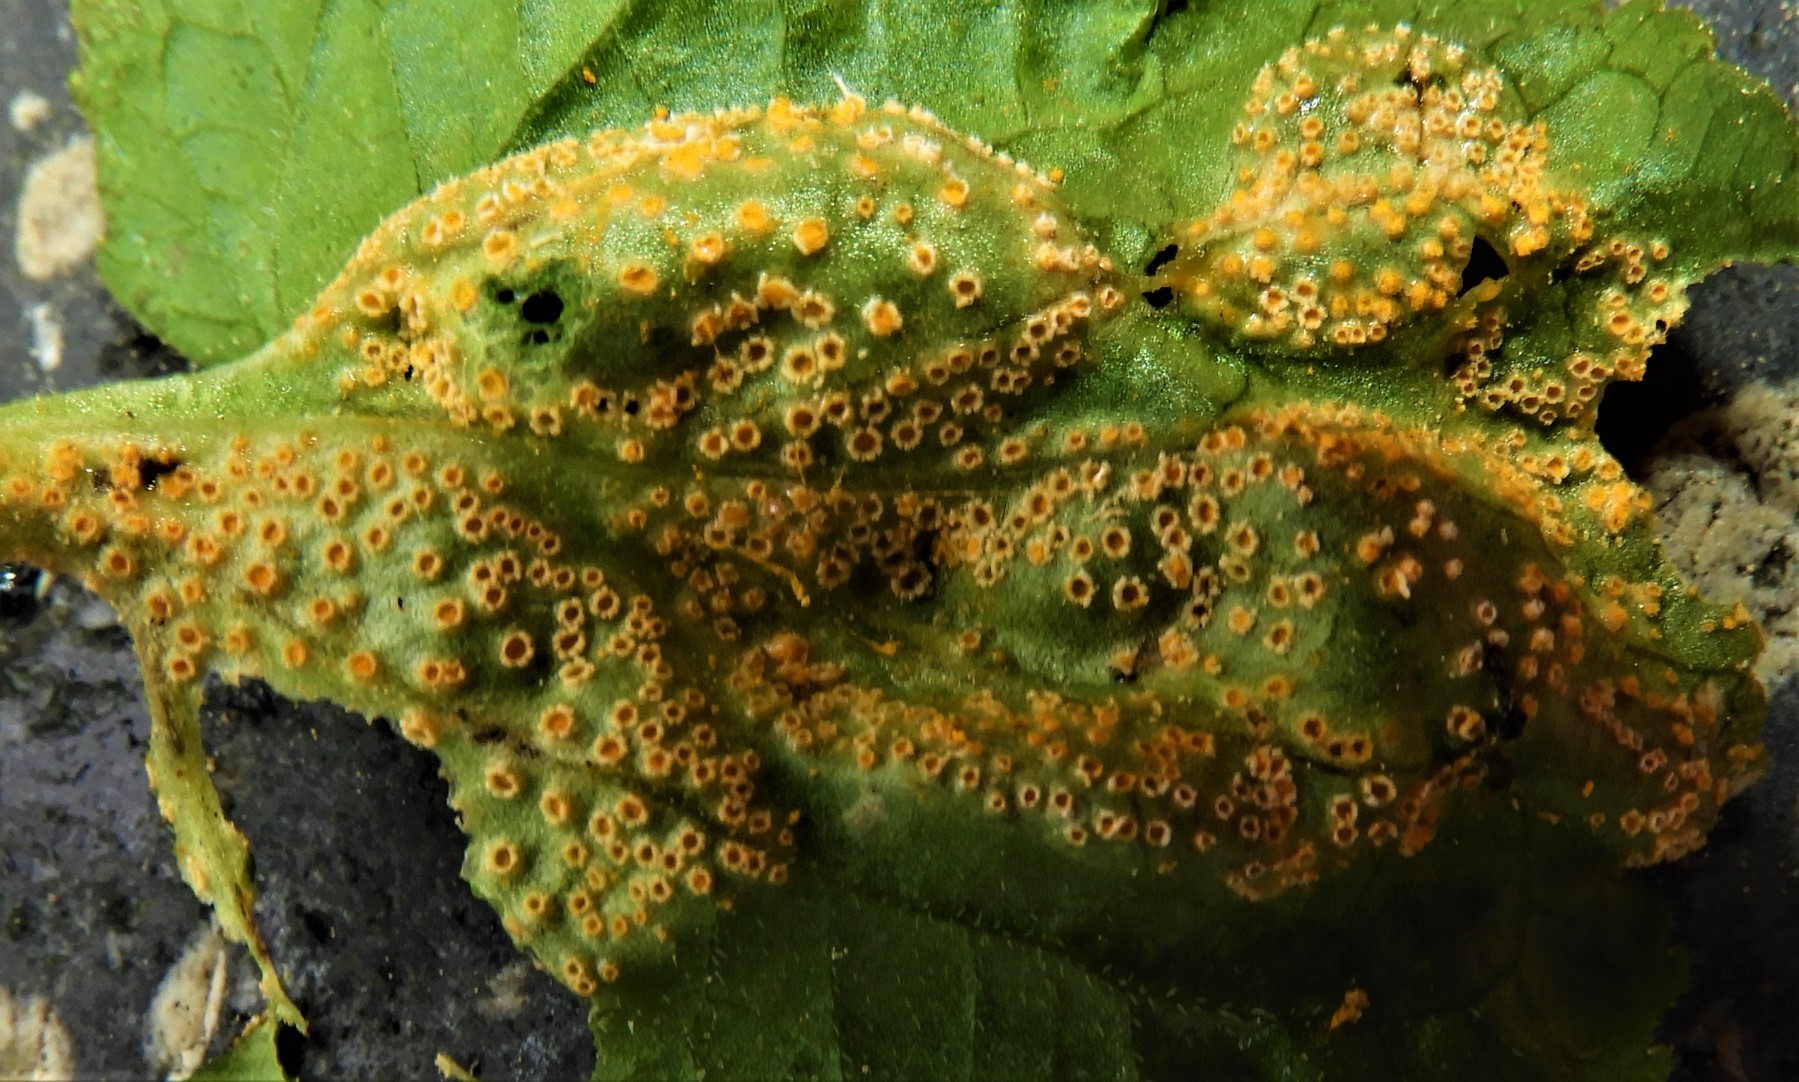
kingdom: Fungi
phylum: Basidiomycota
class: Pucciniomycetes
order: Pucciniales
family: Pucciniaceae
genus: Puccinia
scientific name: Puccinia violae
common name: viol-tvecellerust
